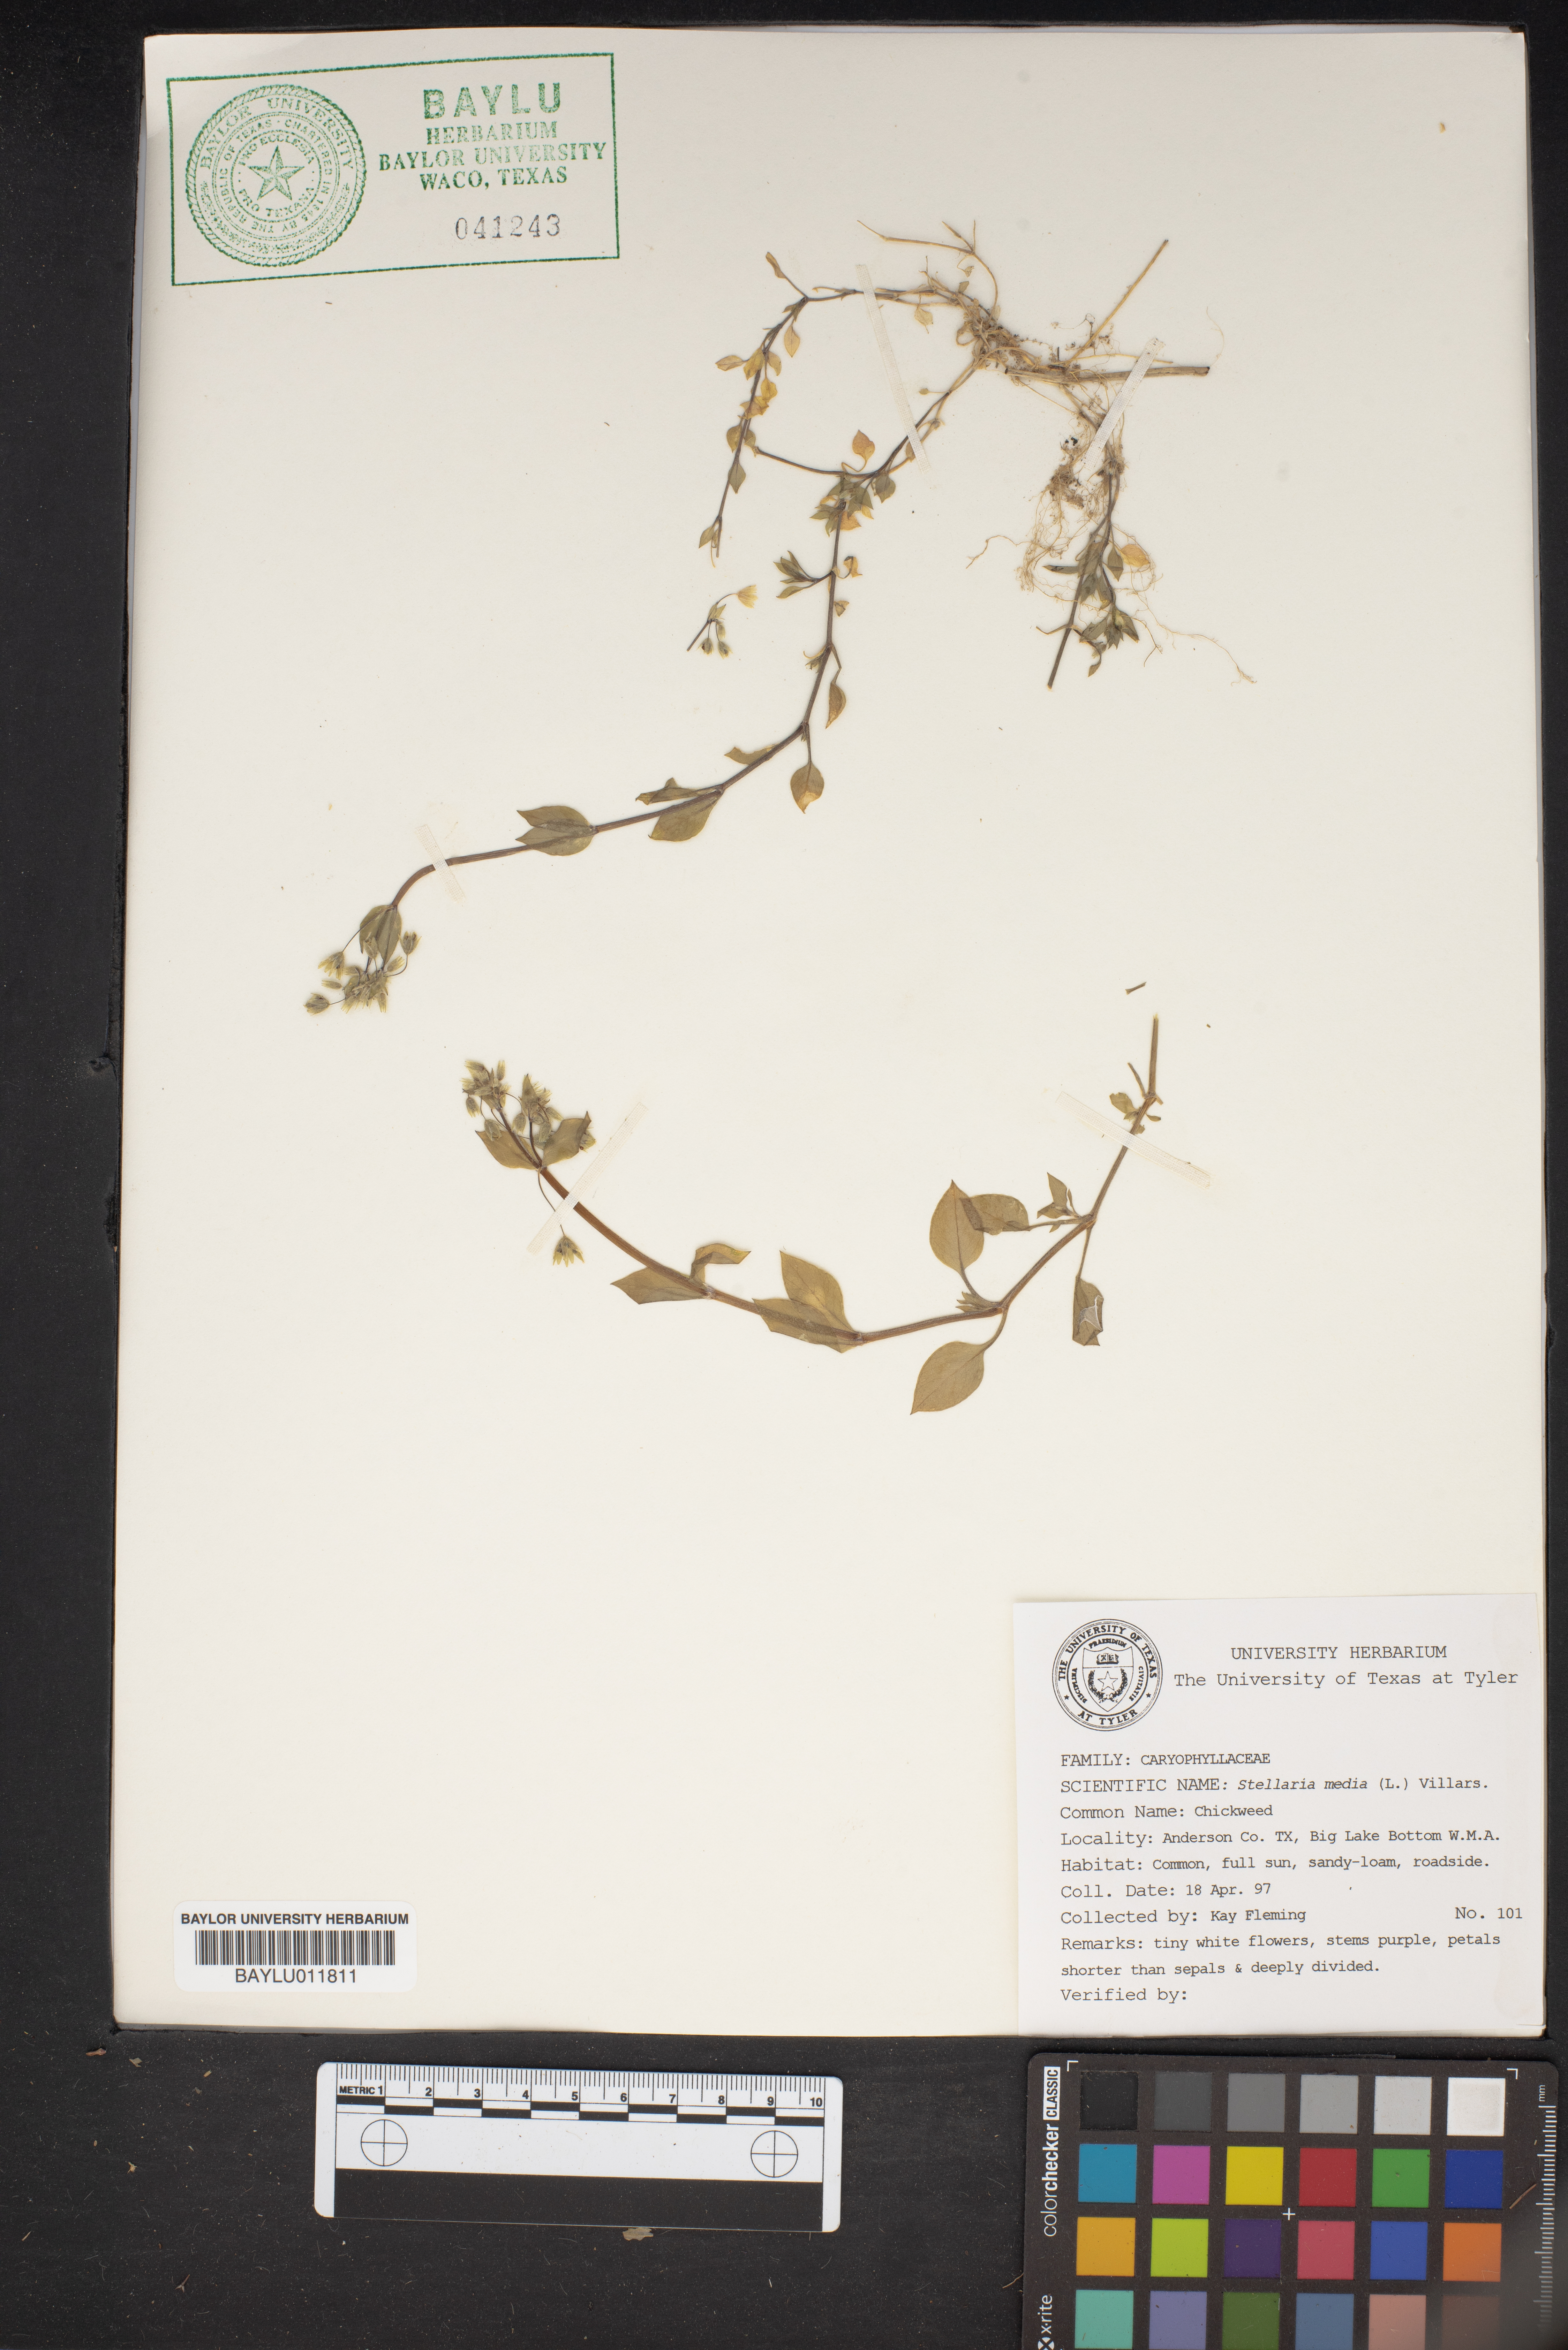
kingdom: Plantae
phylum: Tracheophyta
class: Magnoliopsida
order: Caryophyllales
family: Caryophyllaceae
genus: Stellaria
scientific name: Stellaria media
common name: Common chickweed
